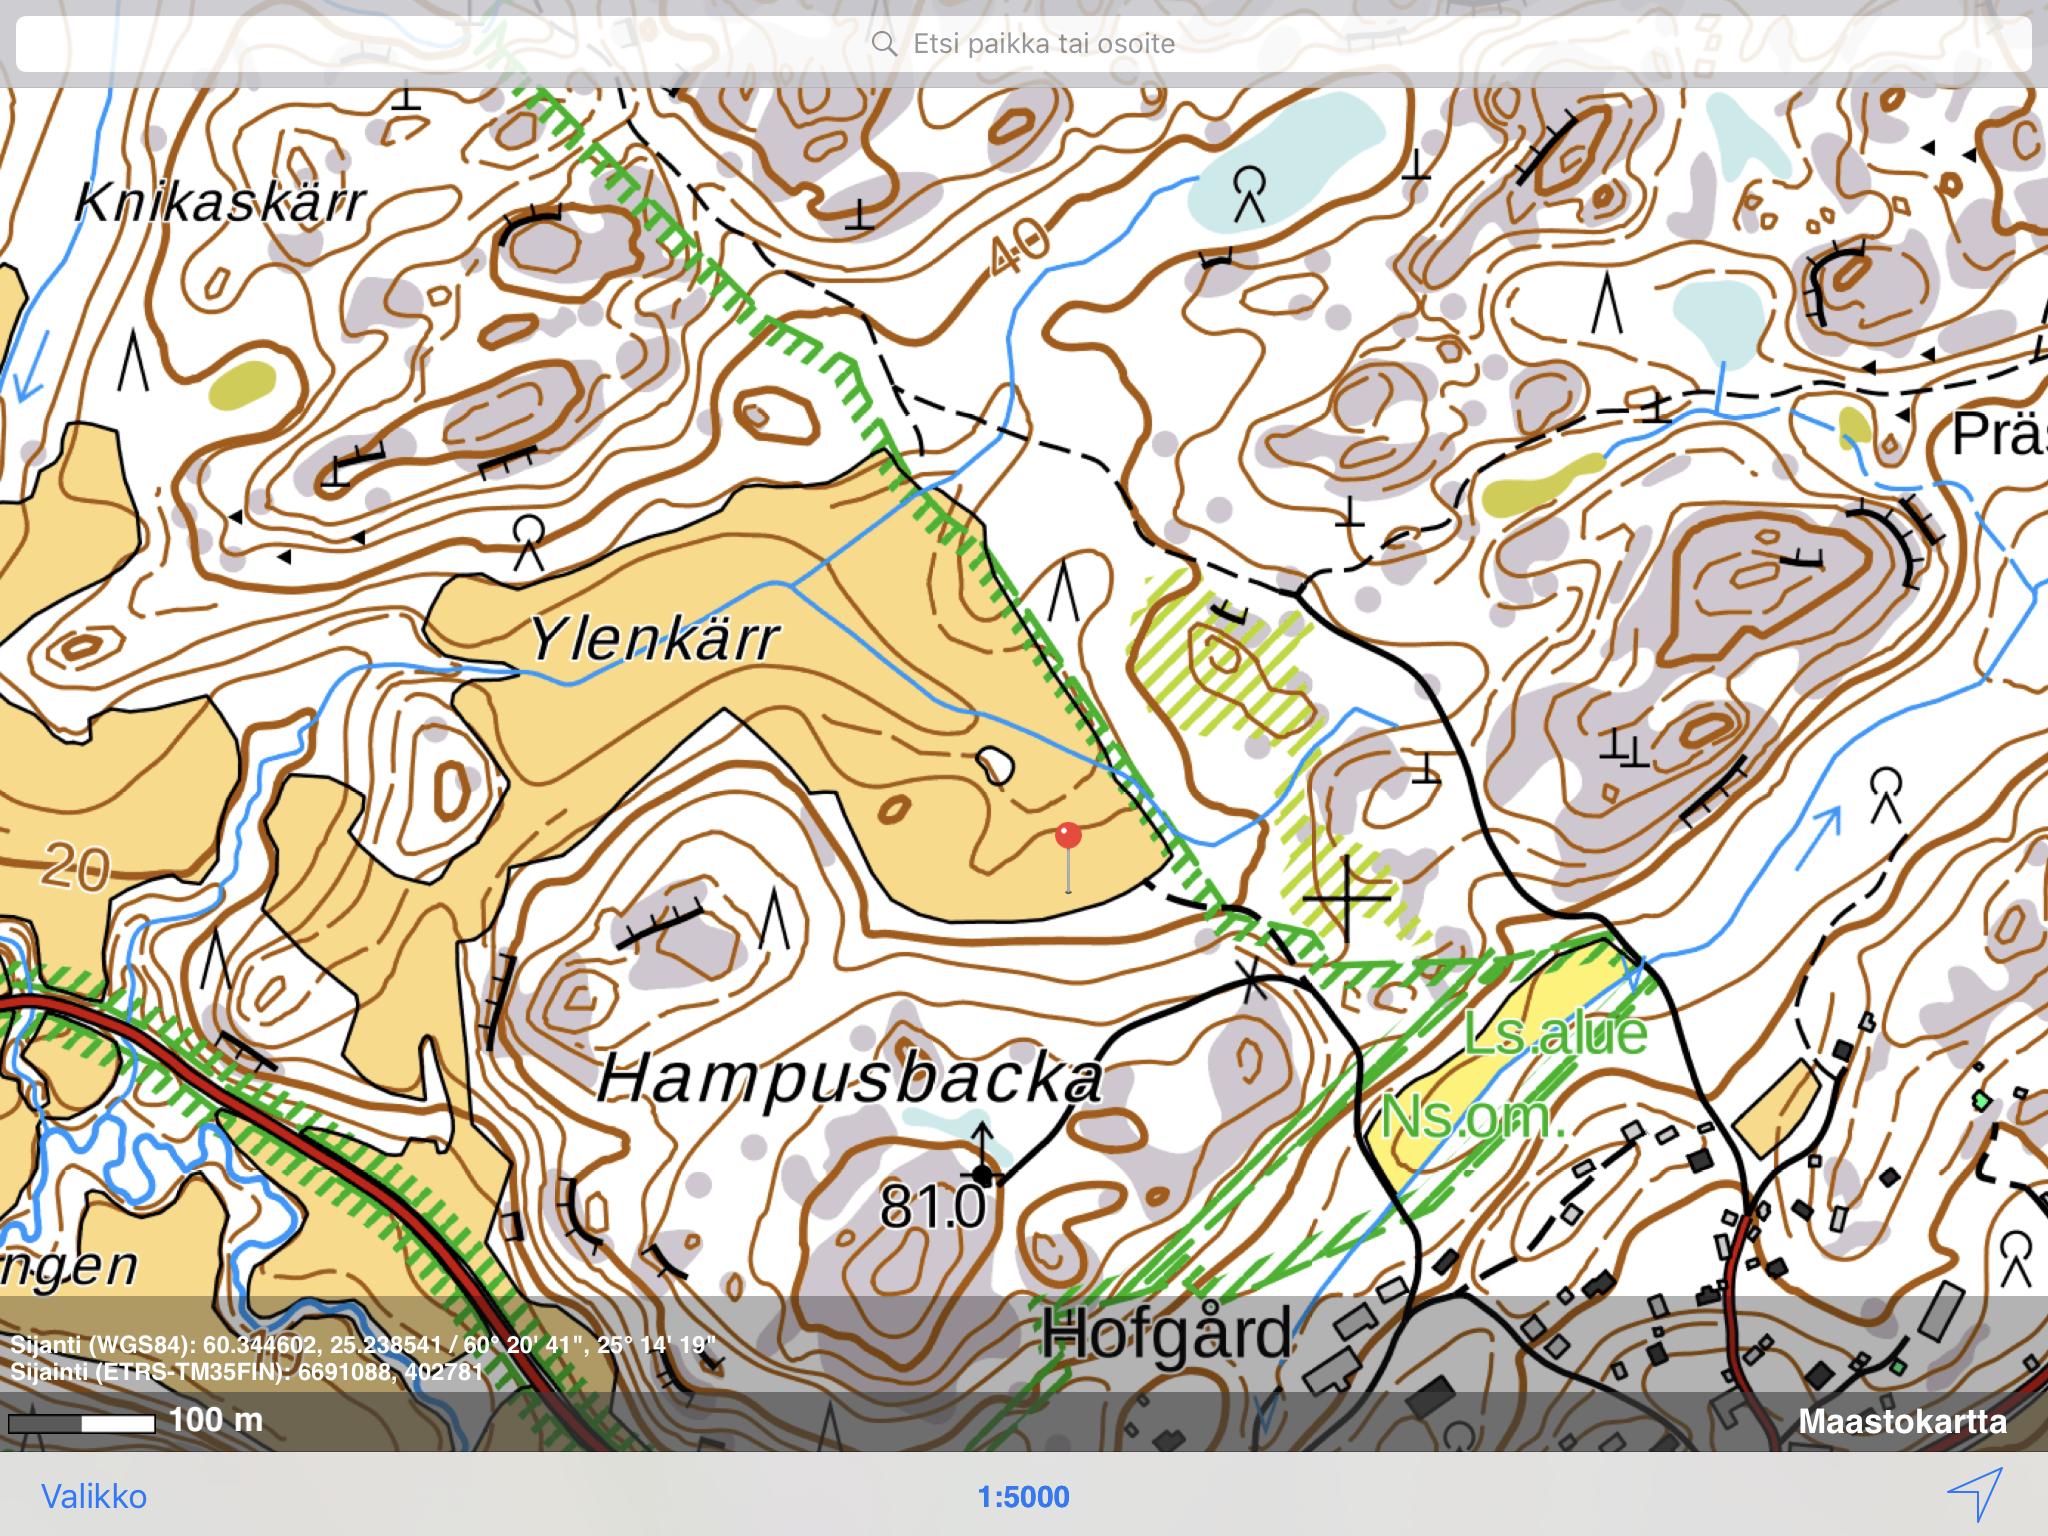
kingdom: Plantae
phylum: Tracheophyta
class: Magnoliopsida
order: Ericales
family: Balsaminaceae
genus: Impatiens
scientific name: Impatiens glandulifera
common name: Himalayan balsam
